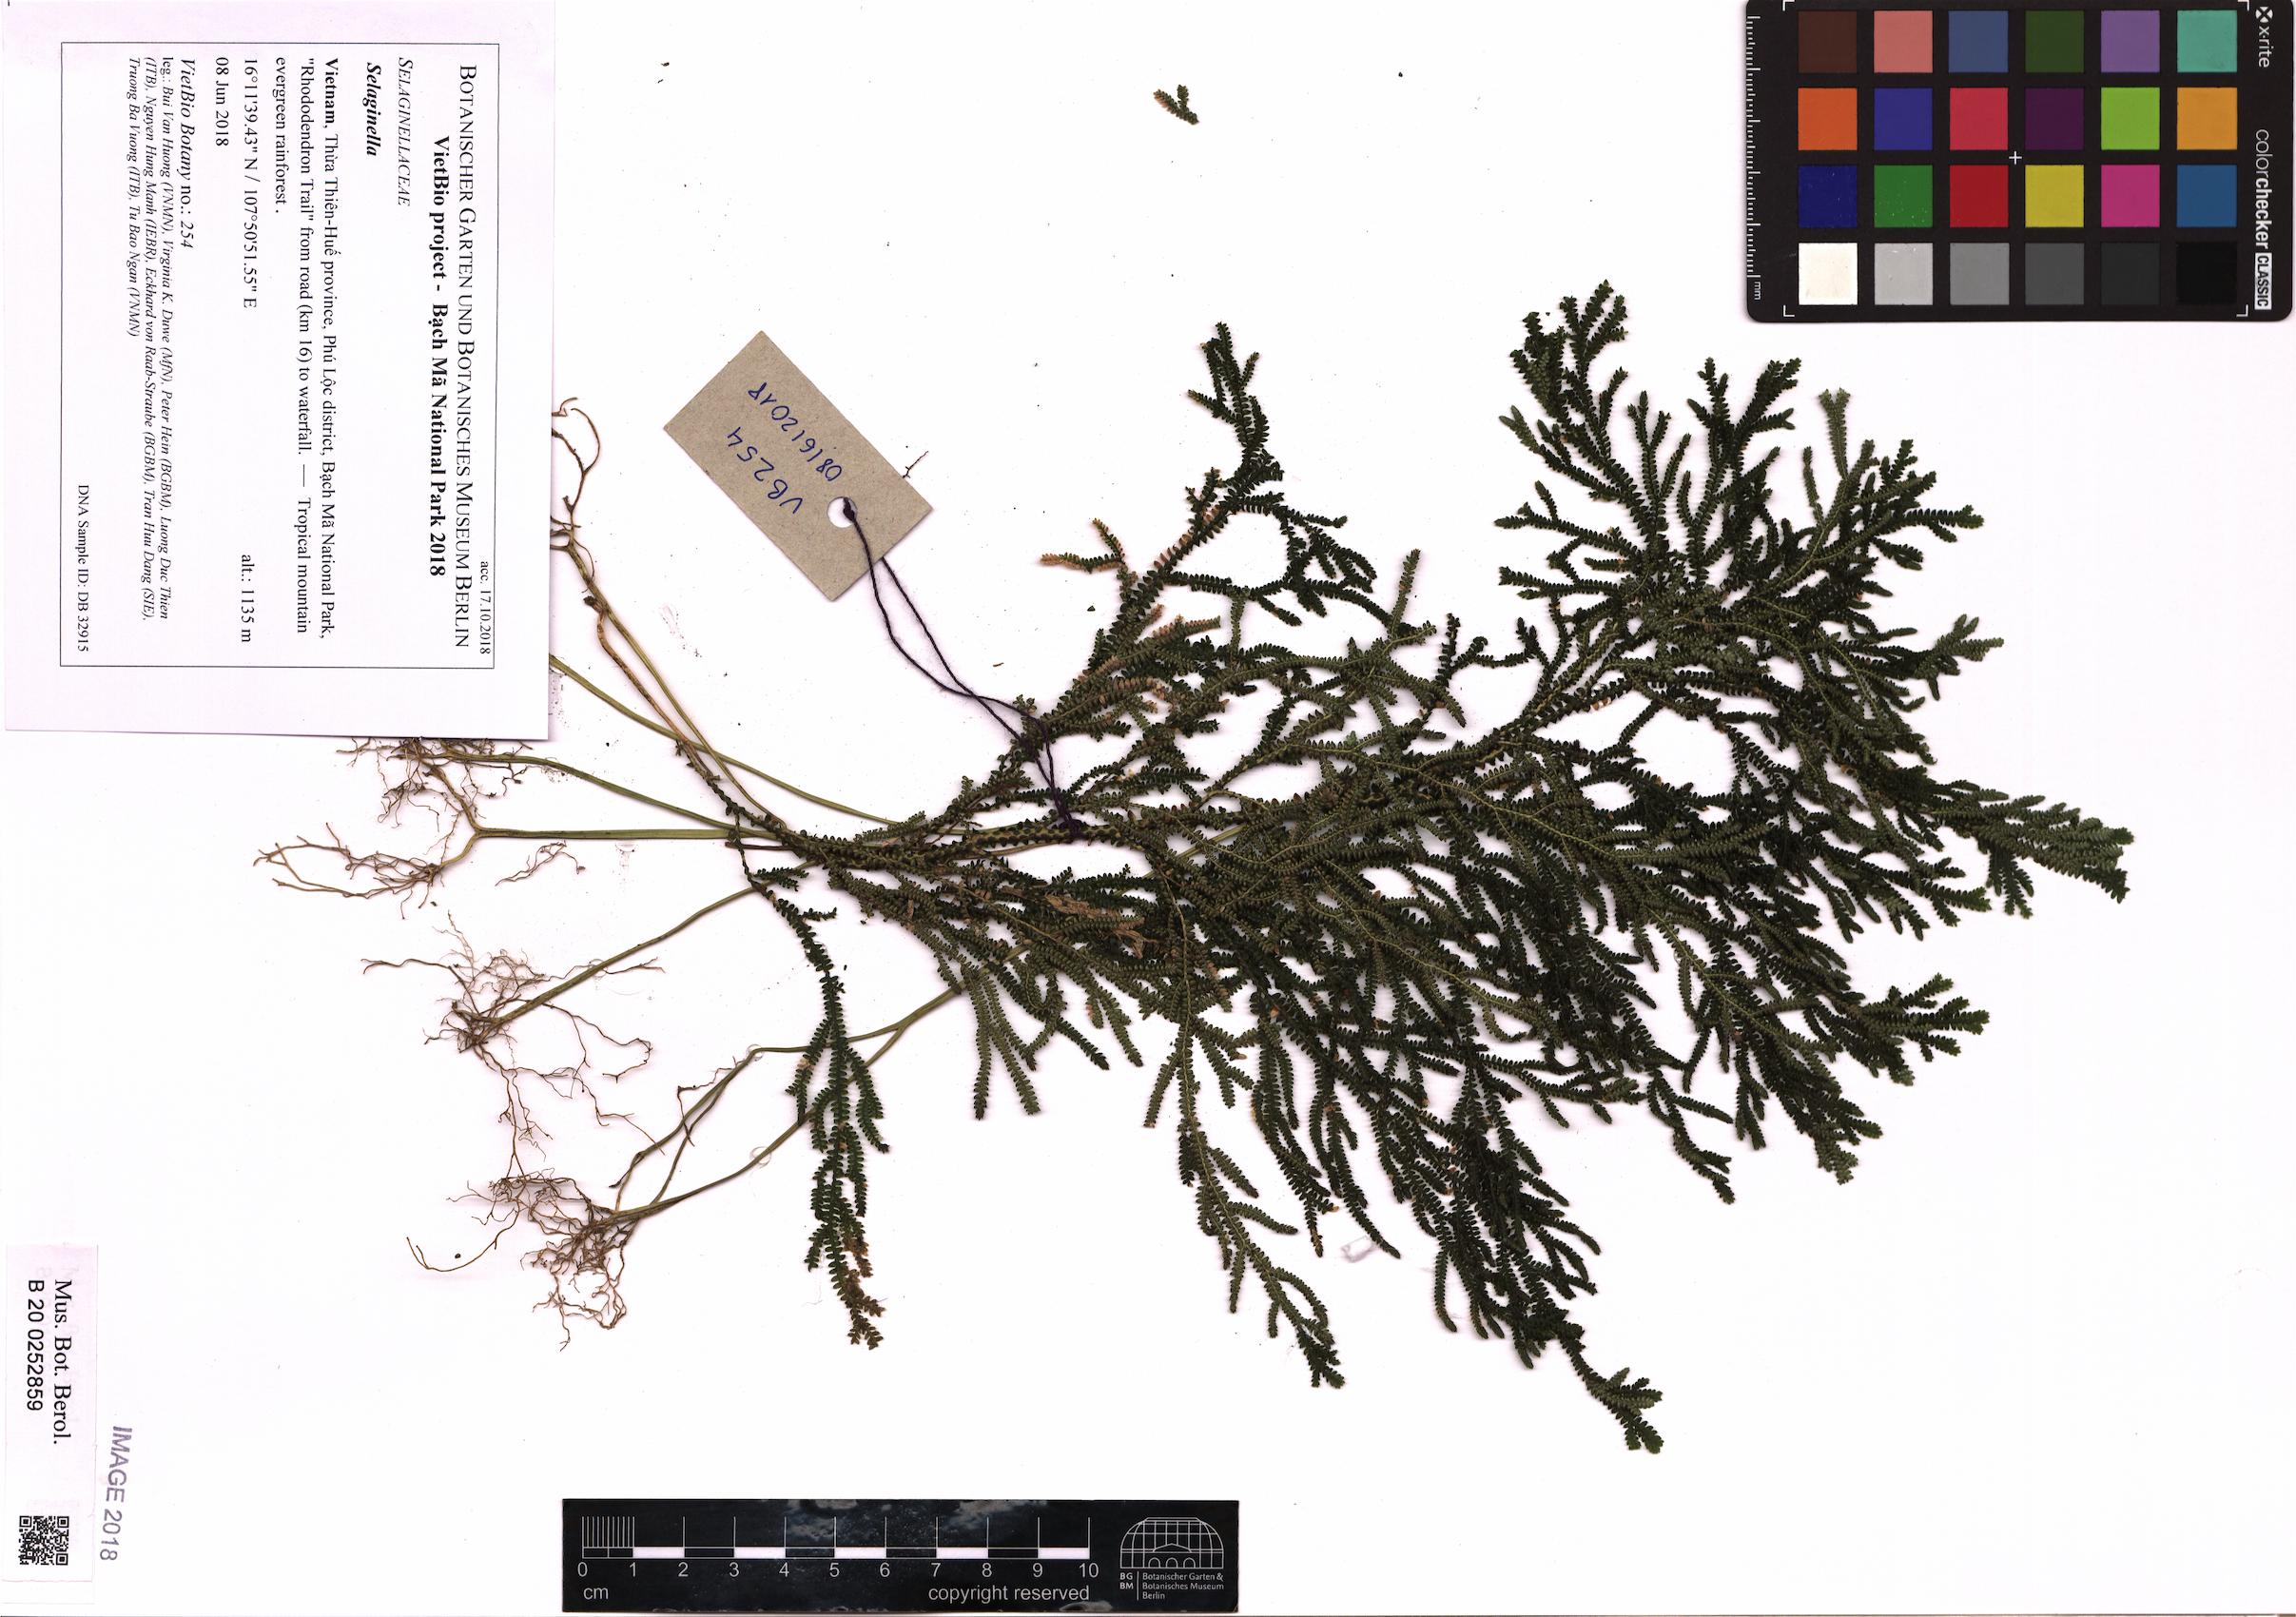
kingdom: Plantae
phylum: Tracheophyta
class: Lycopodiopsida
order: Selaginellales
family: Selaginellaceae
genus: Selaginella
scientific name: Selaginella
